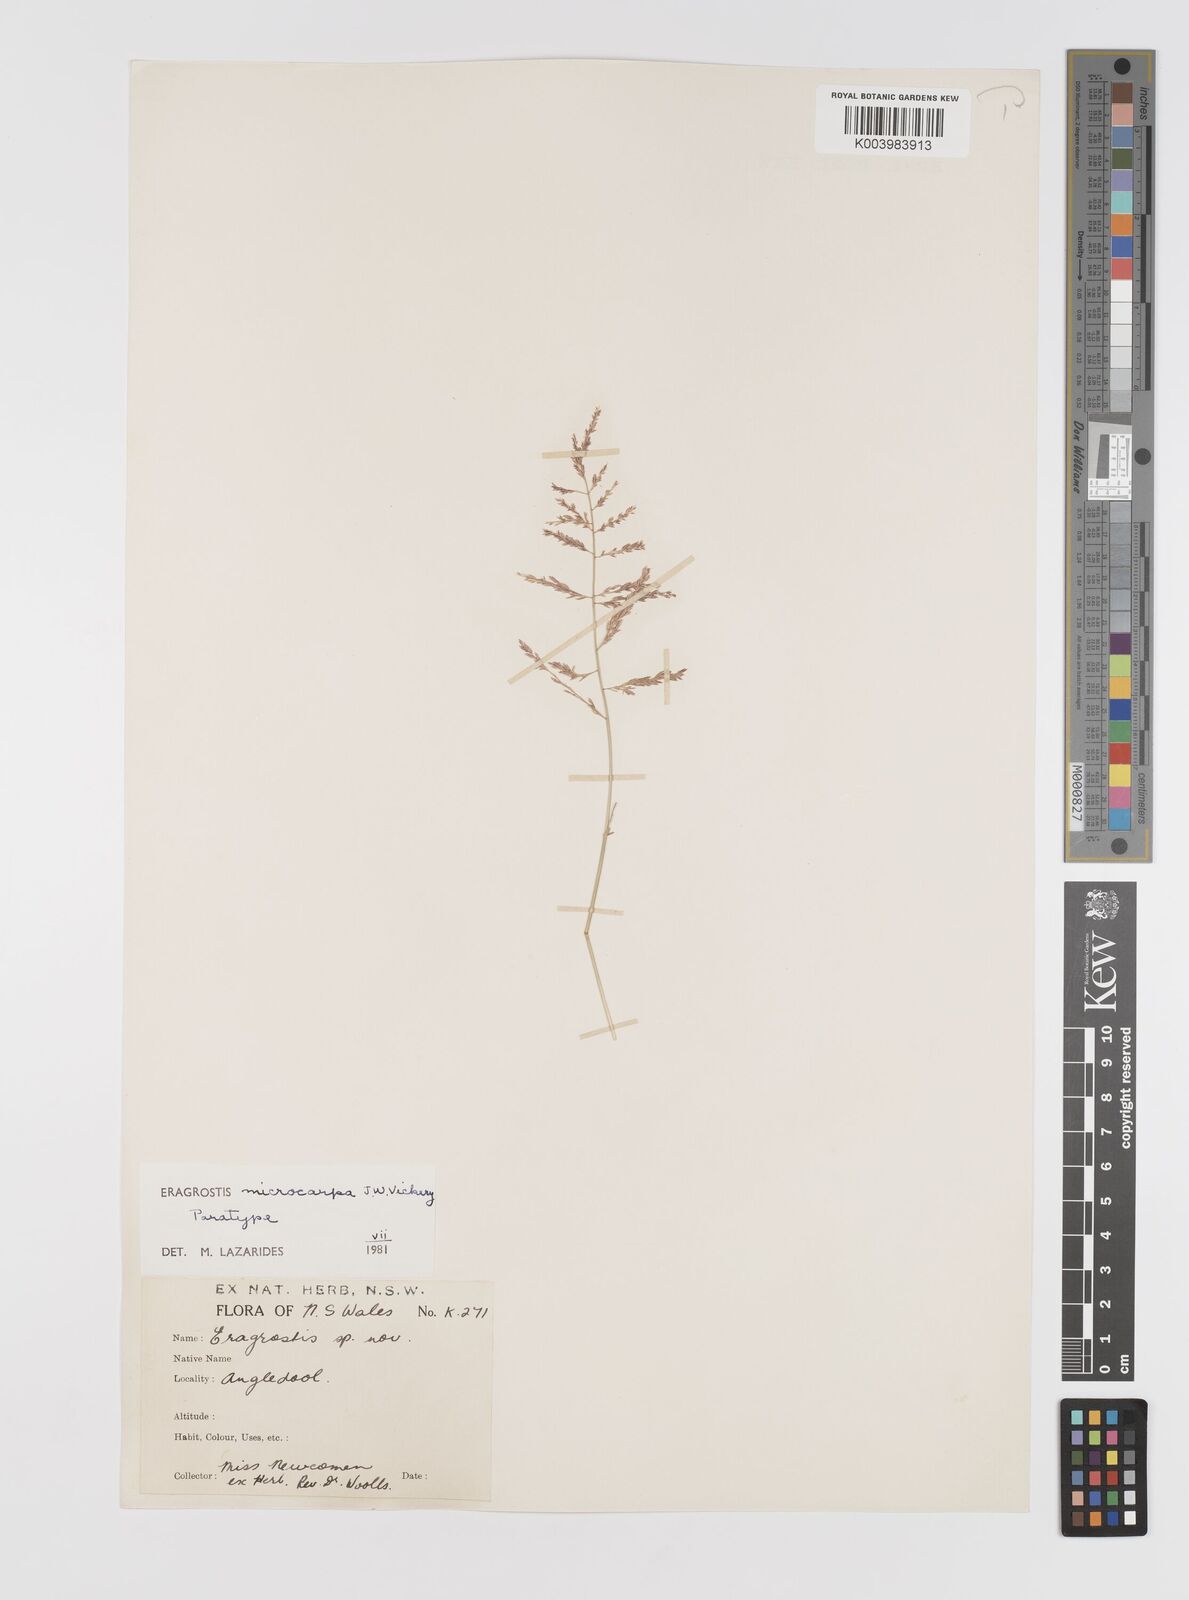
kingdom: Plantae
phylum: Tracheophyta
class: Liliopsida
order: Poales
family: Poaceae
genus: Eragrostis
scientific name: Eragrostis microcarpa
